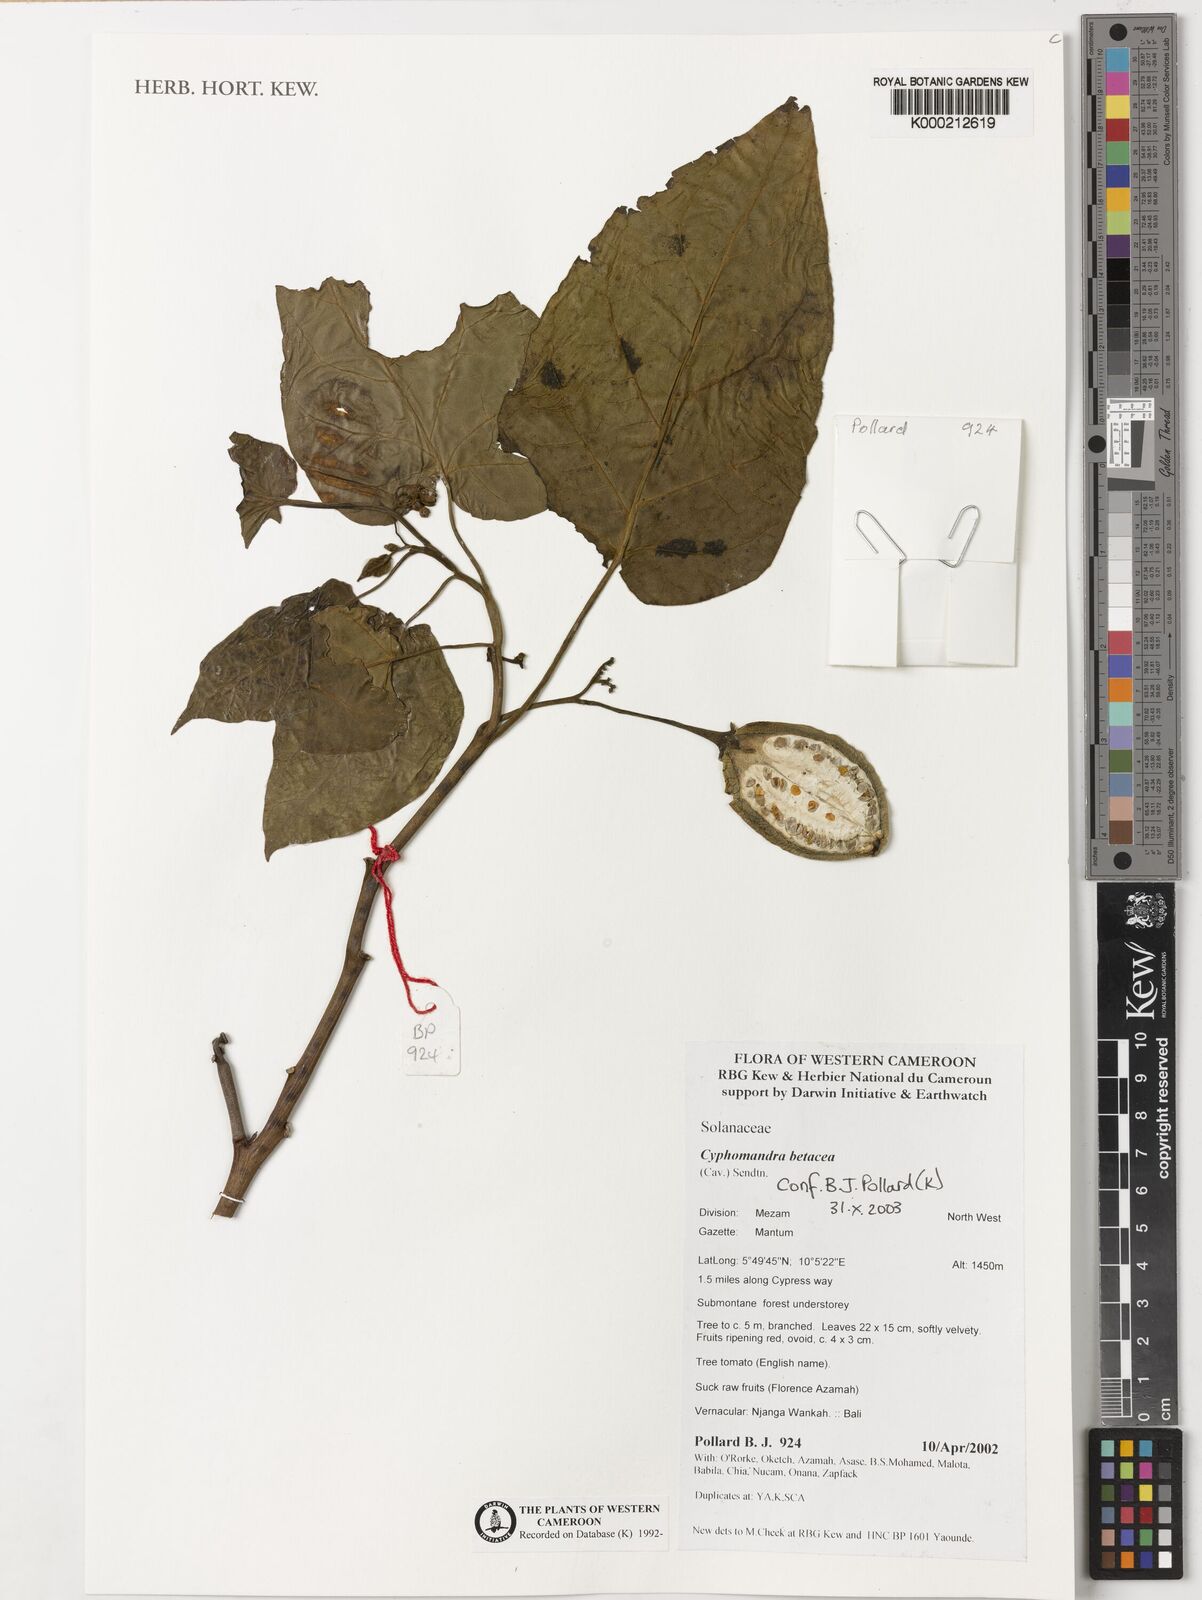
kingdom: Plantae
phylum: Tracheophyta
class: Magnoliopsida
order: Solanales
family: Solanaceae
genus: Solanum
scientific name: Solanum betaceum
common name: Tamarillo
